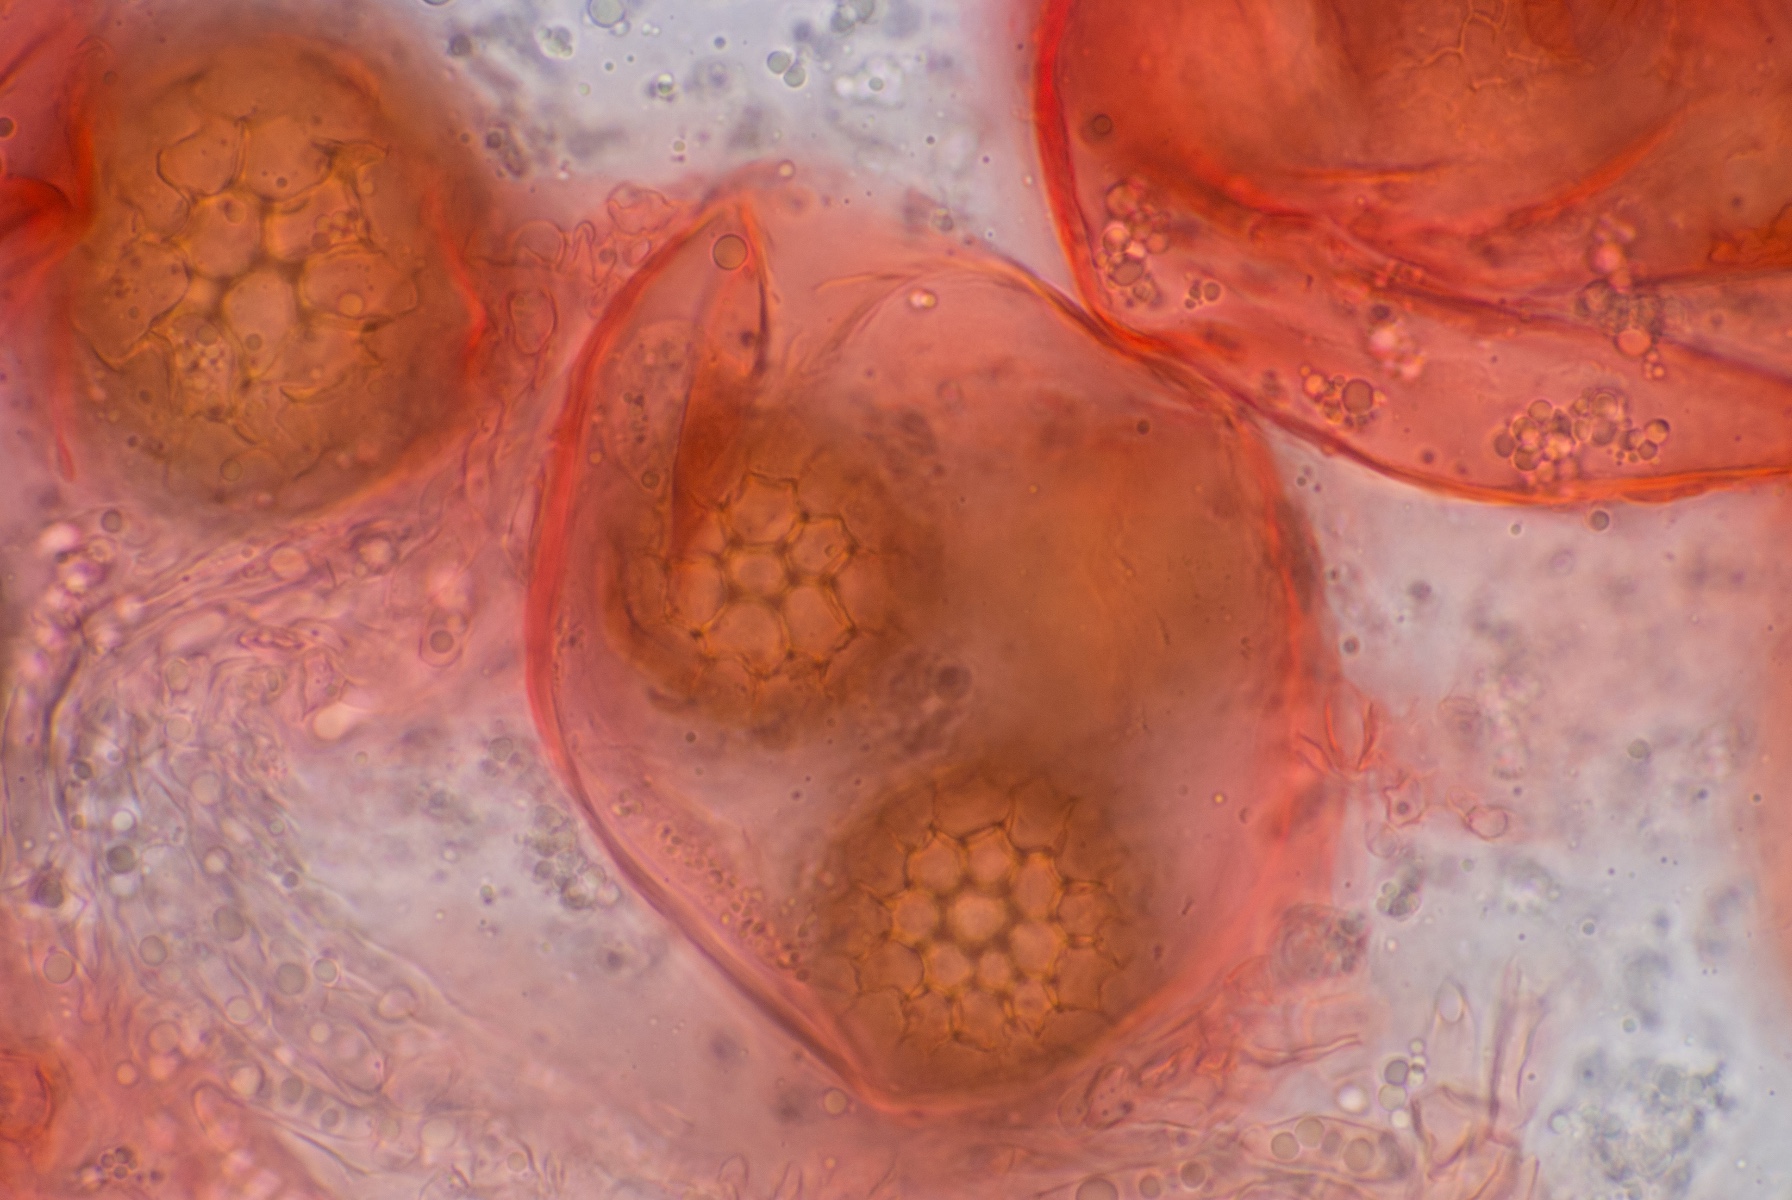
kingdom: Fungi
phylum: Ascomycota
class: Pezizomycetes
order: Pezizales
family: Tuberaceae
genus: Tuber
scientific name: Tuber puberulum
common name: dunet trøffel
